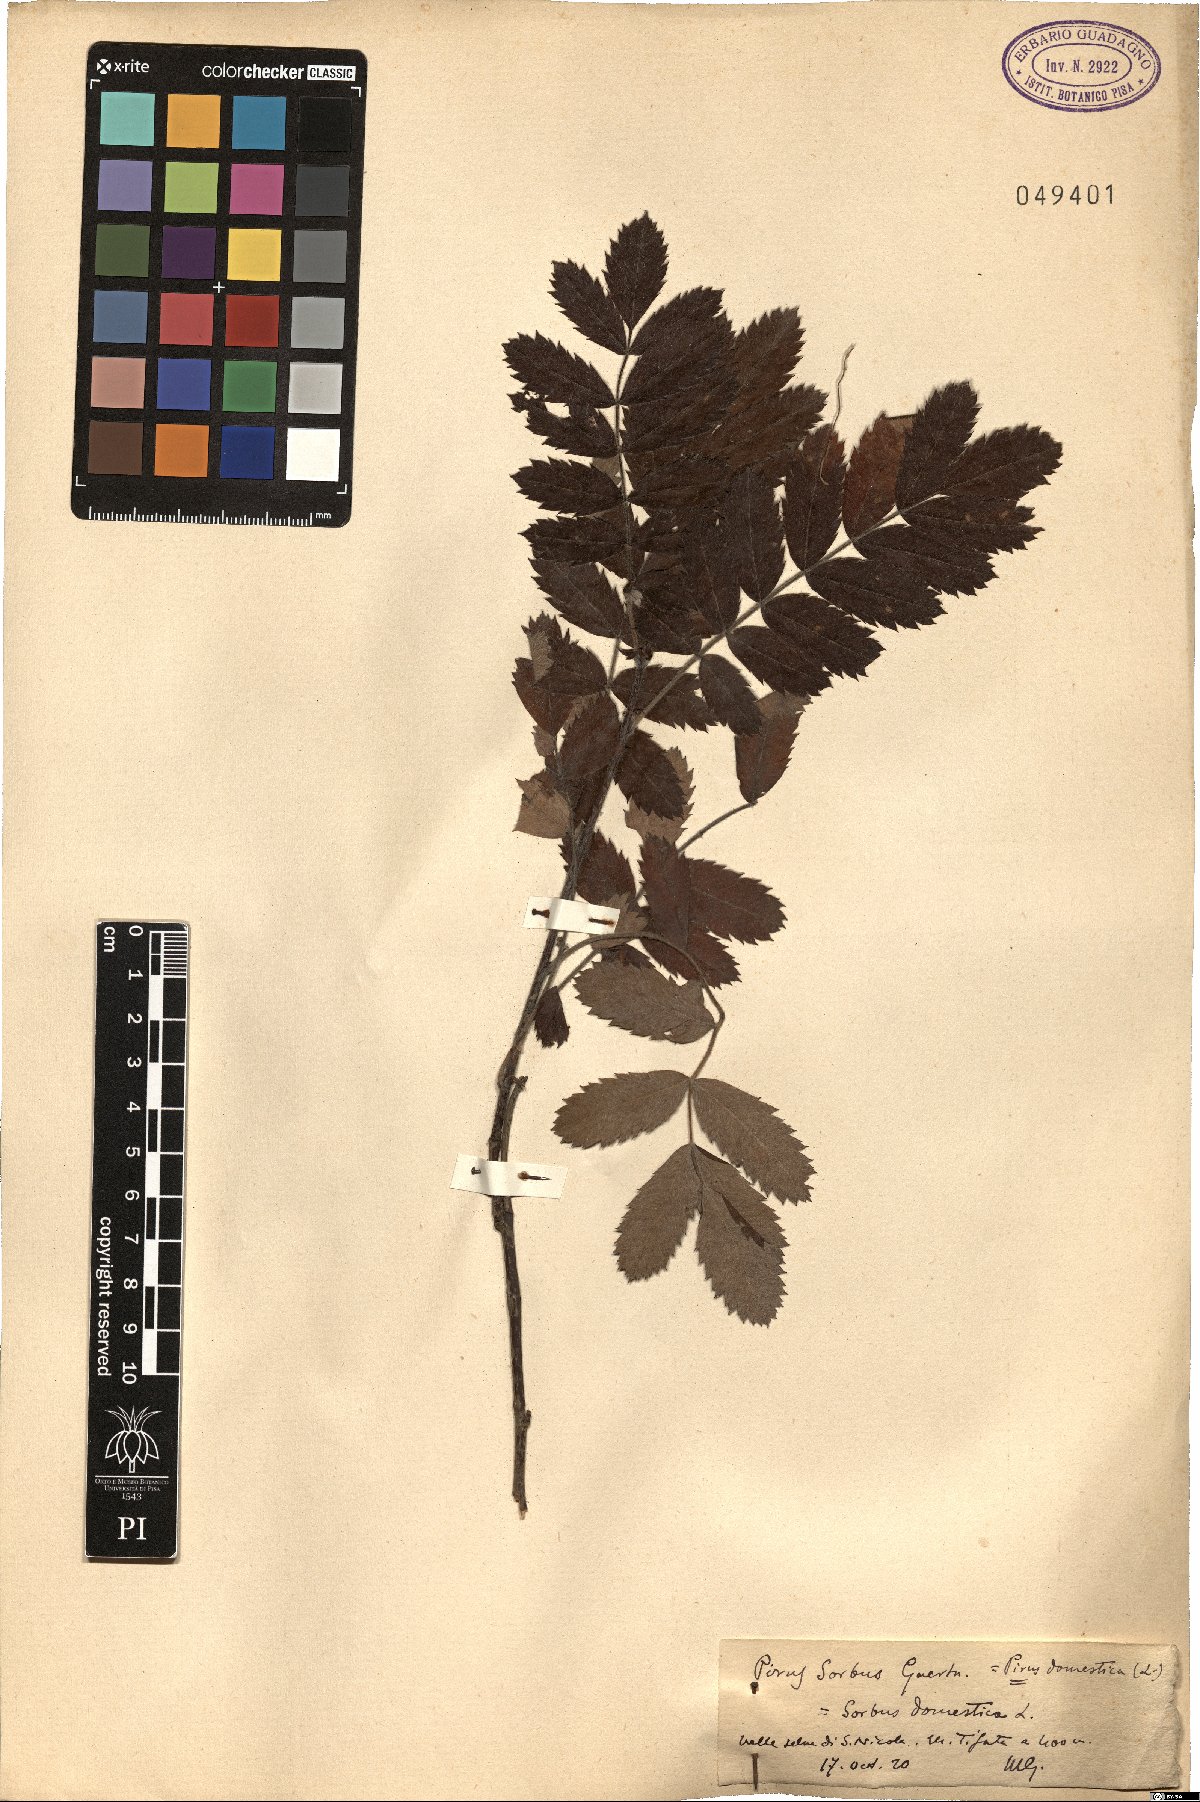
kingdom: Plantae
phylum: Tracheophyta
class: Magnoliopsida
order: Rosales
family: Rosaceae
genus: Cormus
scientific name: Cormus domestica
